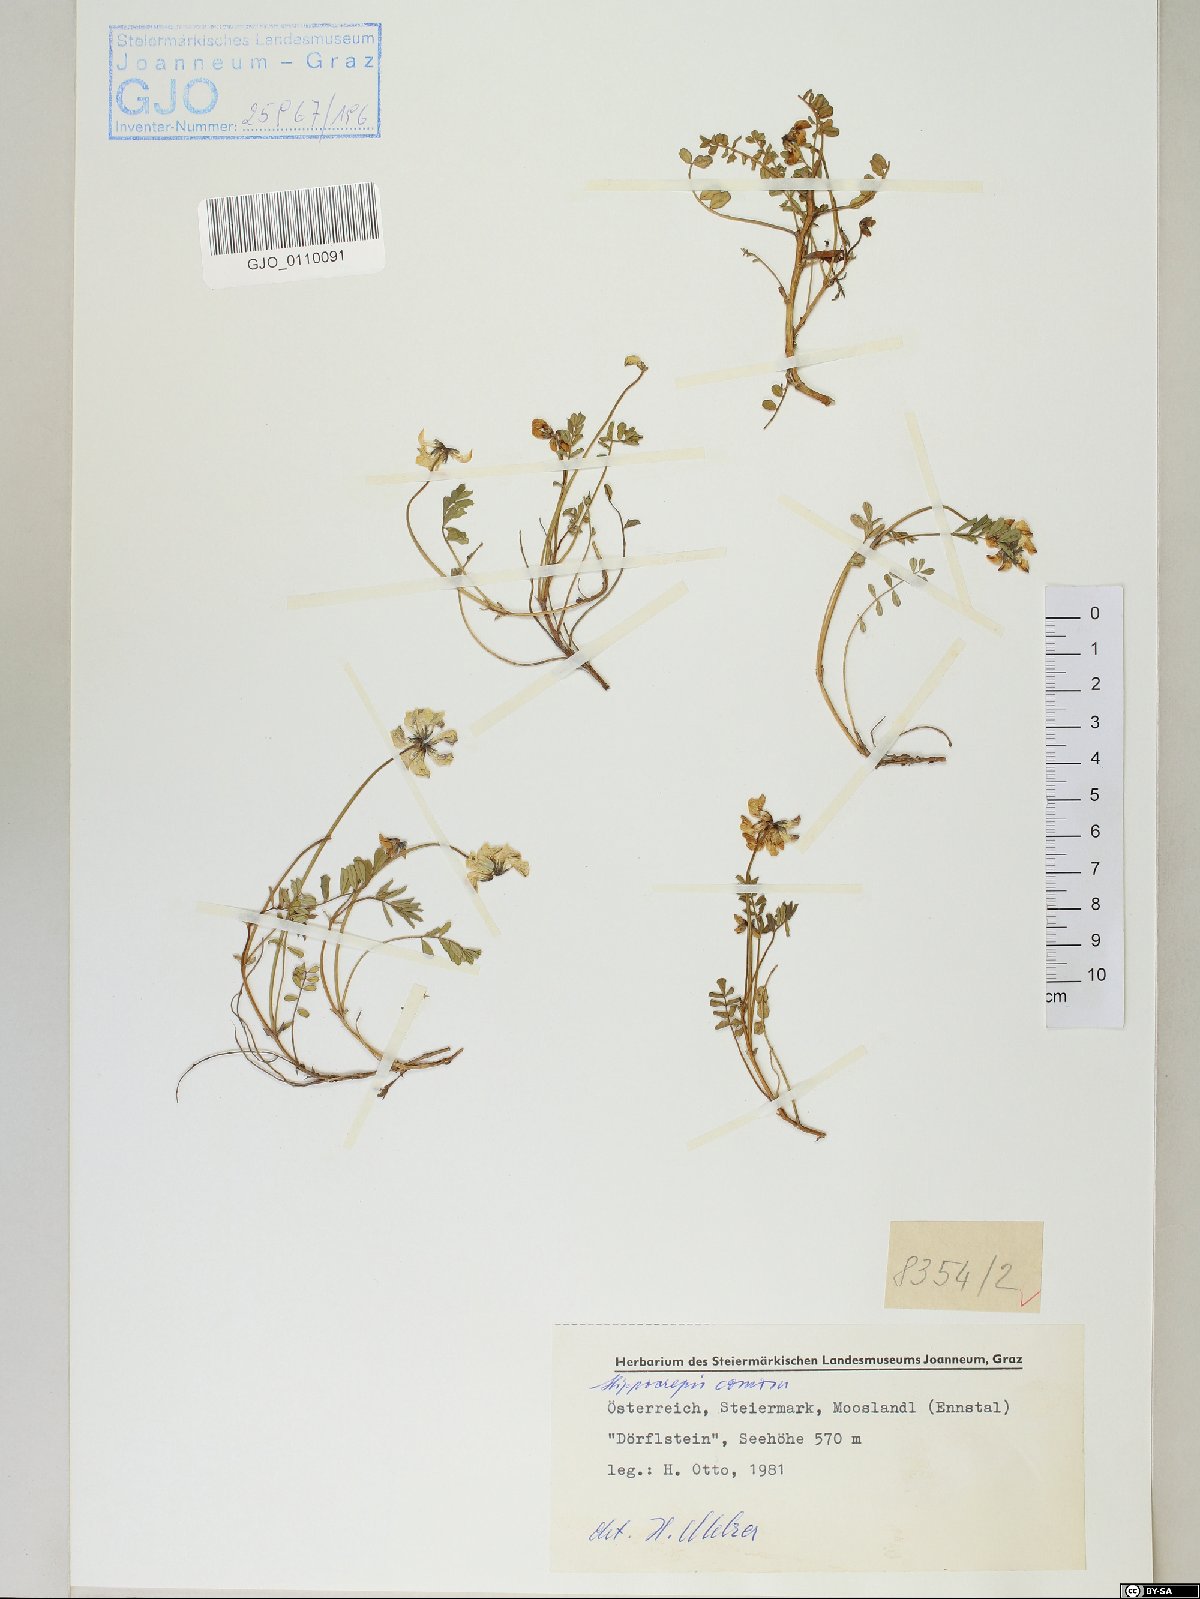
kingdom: Plantae
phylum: Tracheophyta
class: Magnoliopsida
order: Fabales
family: Fabaceae
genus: Hippocrepis
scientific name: Hippocrepis comosa
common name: Horseshoe vetch
